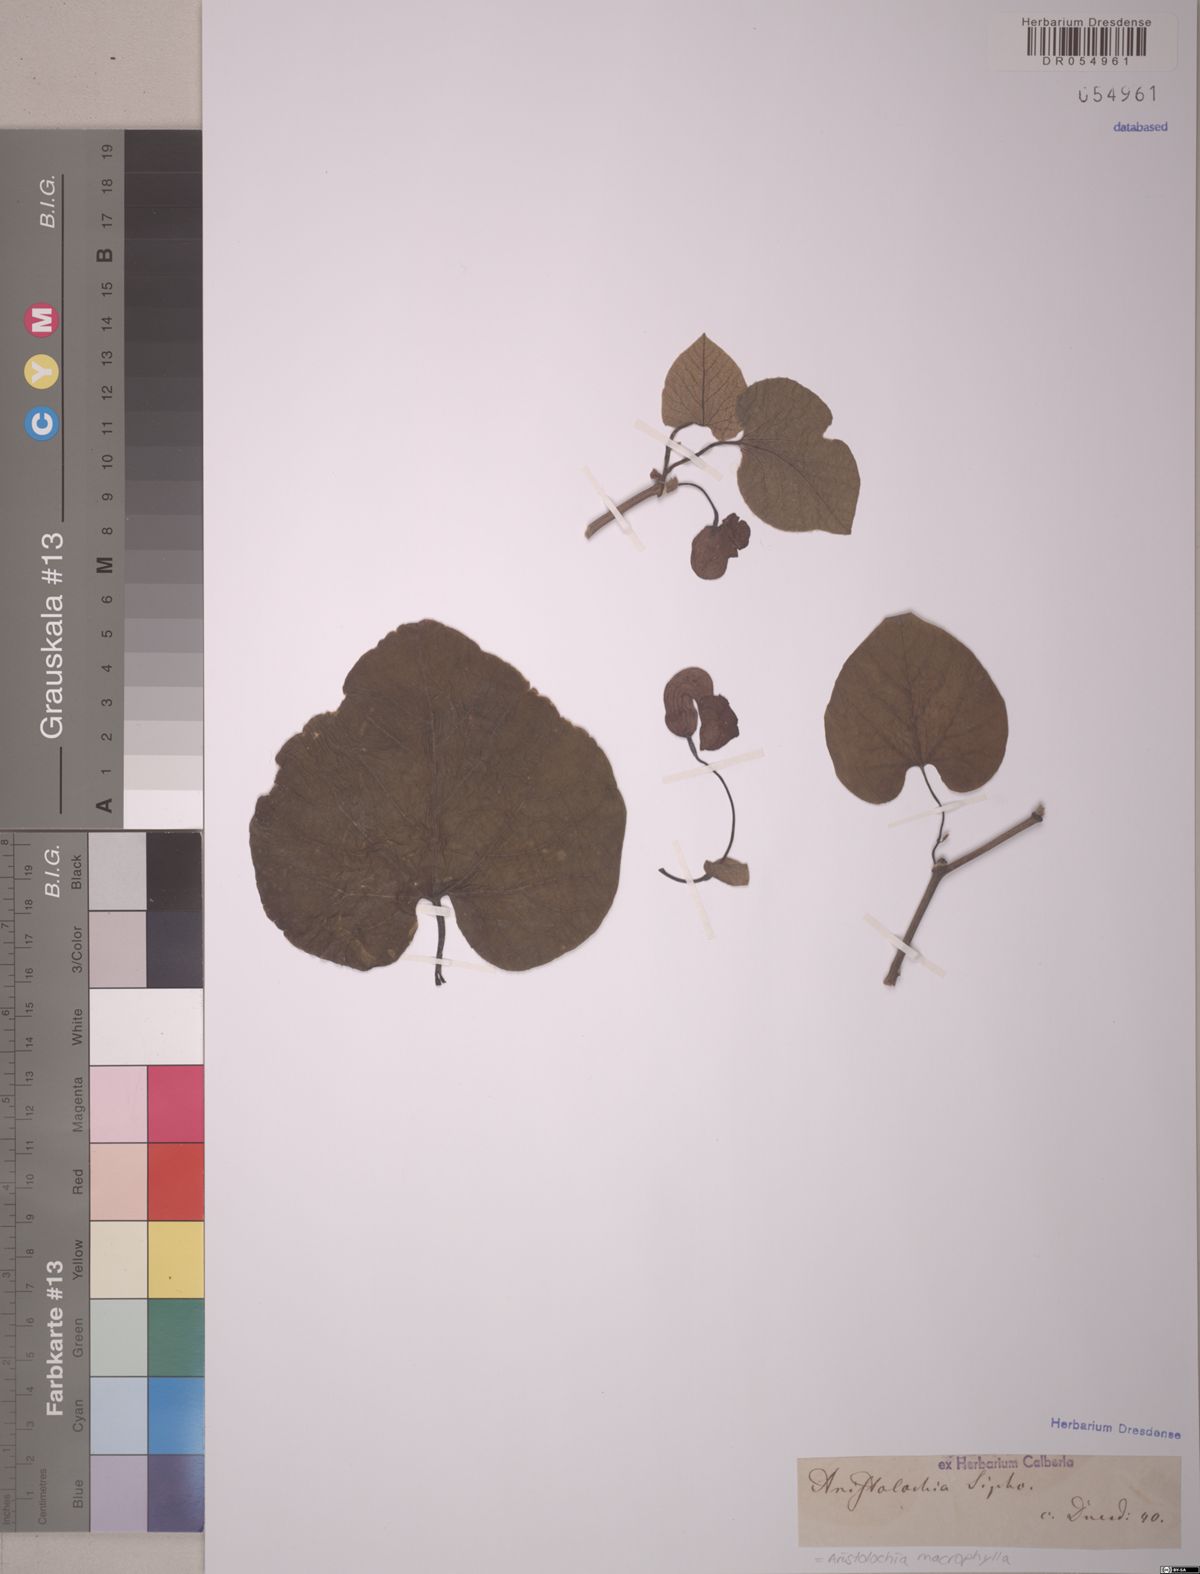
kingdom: Plantae
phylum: Tracheophyta
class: Magnoliopsida
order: Piperales
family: Aristolochiaceae
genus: Isotrema
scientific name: Isotrema macrophyllum
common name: Dutchman's-pipe
